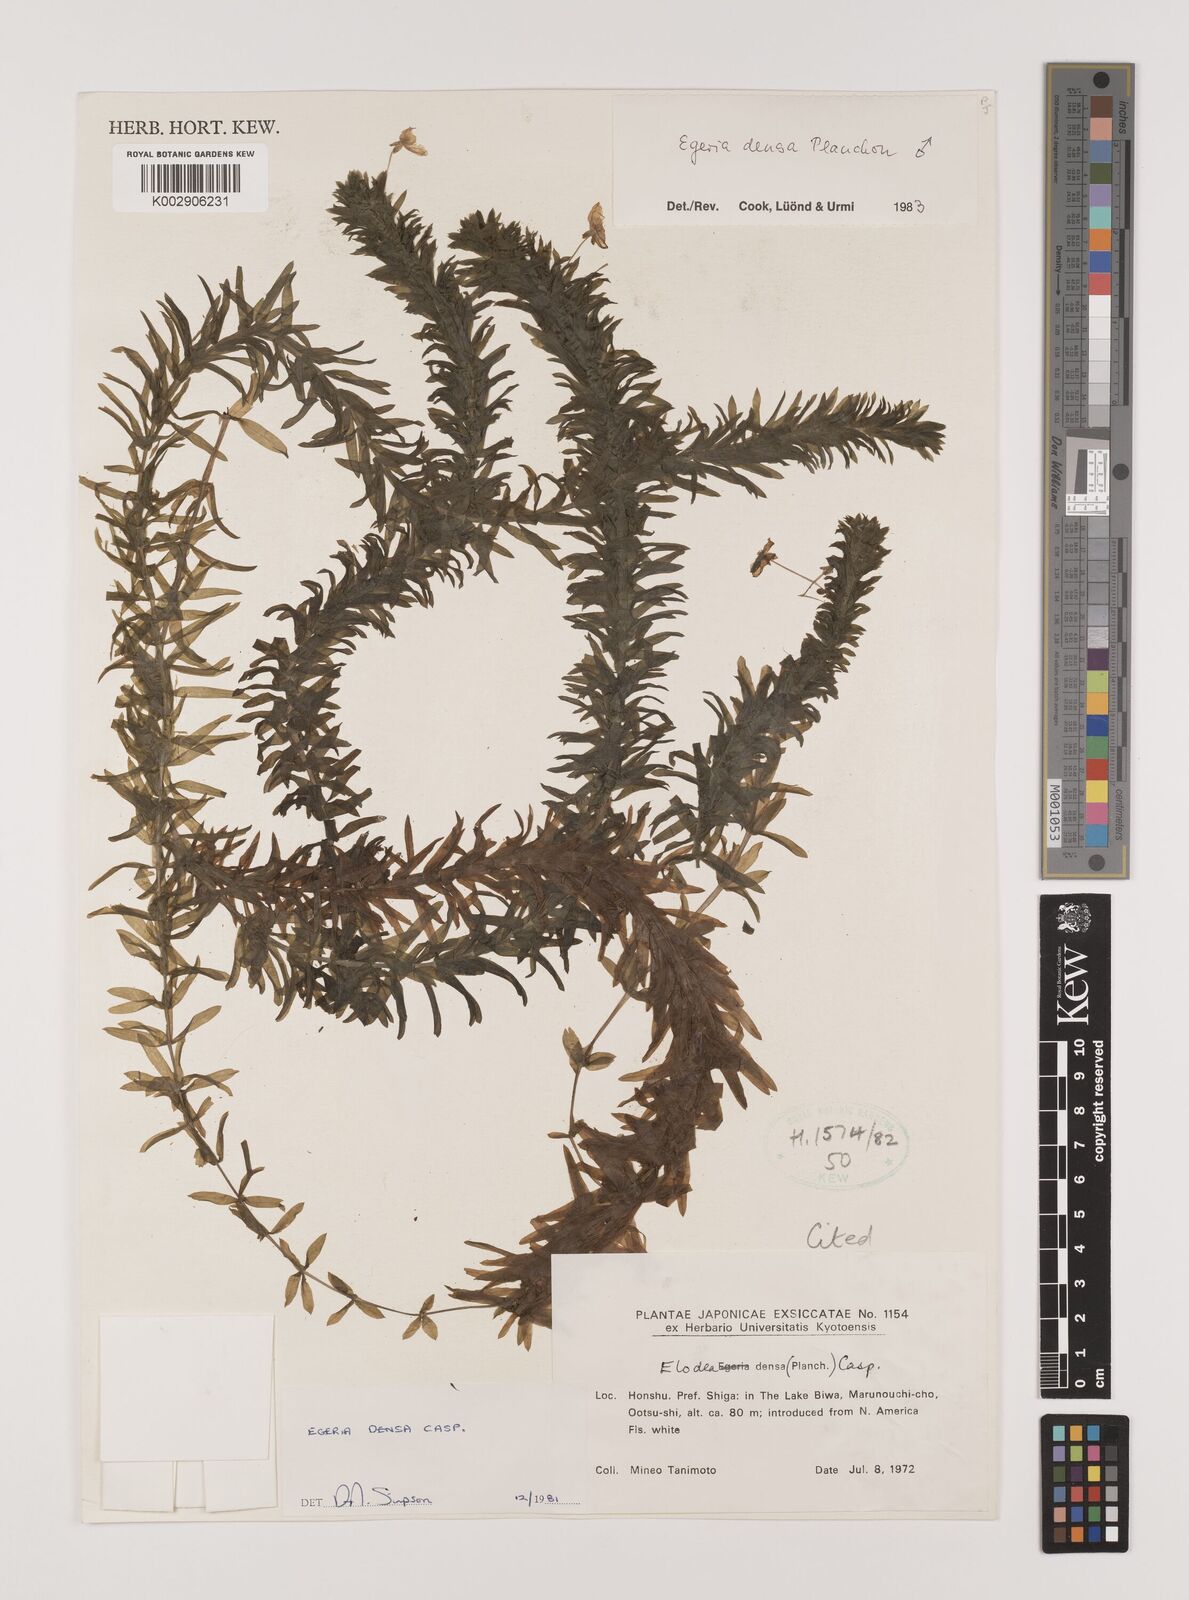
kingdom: Plantae
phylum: Tracheophyta
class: Liliopsida
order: Alismatales
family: Hydrocharitaceae
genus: Elodea
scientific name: Elodea densa
